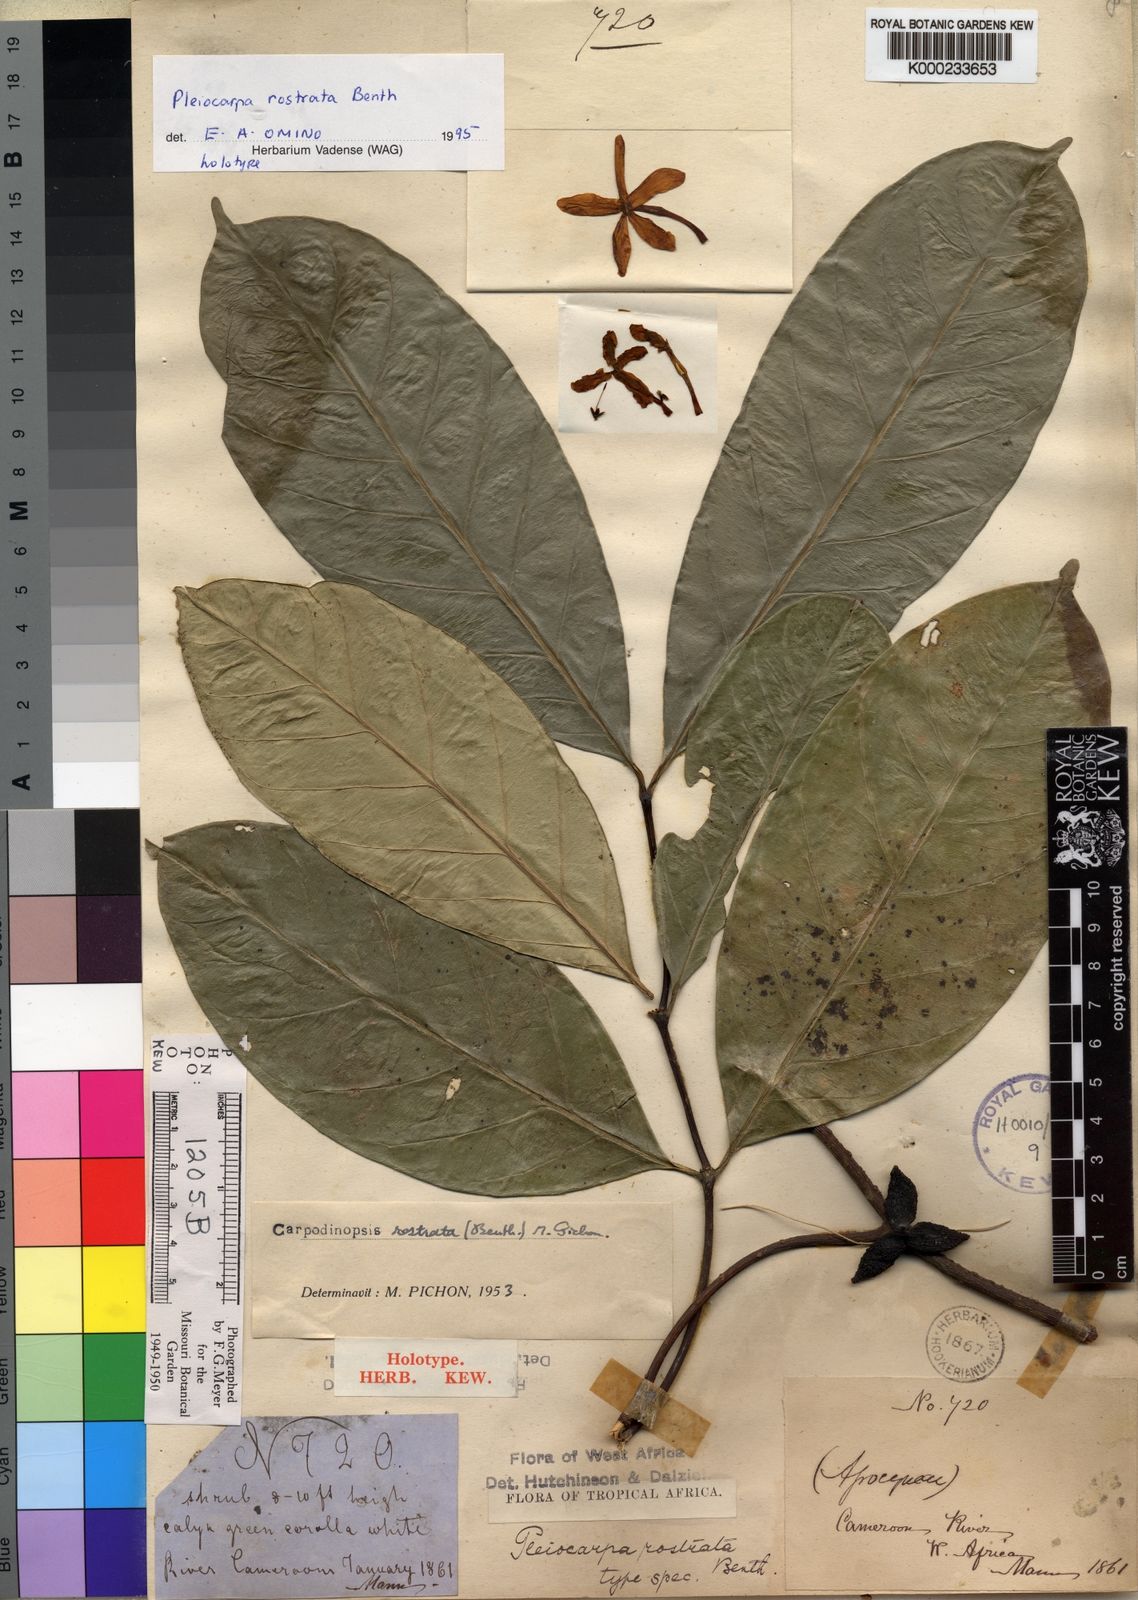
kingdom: Plantae
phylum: Tracheophyta
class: Magnoliopsida
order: Gentianales
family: Apocynaceae
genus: Pleiocarpa
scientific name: Pleiocarpa rostrata
